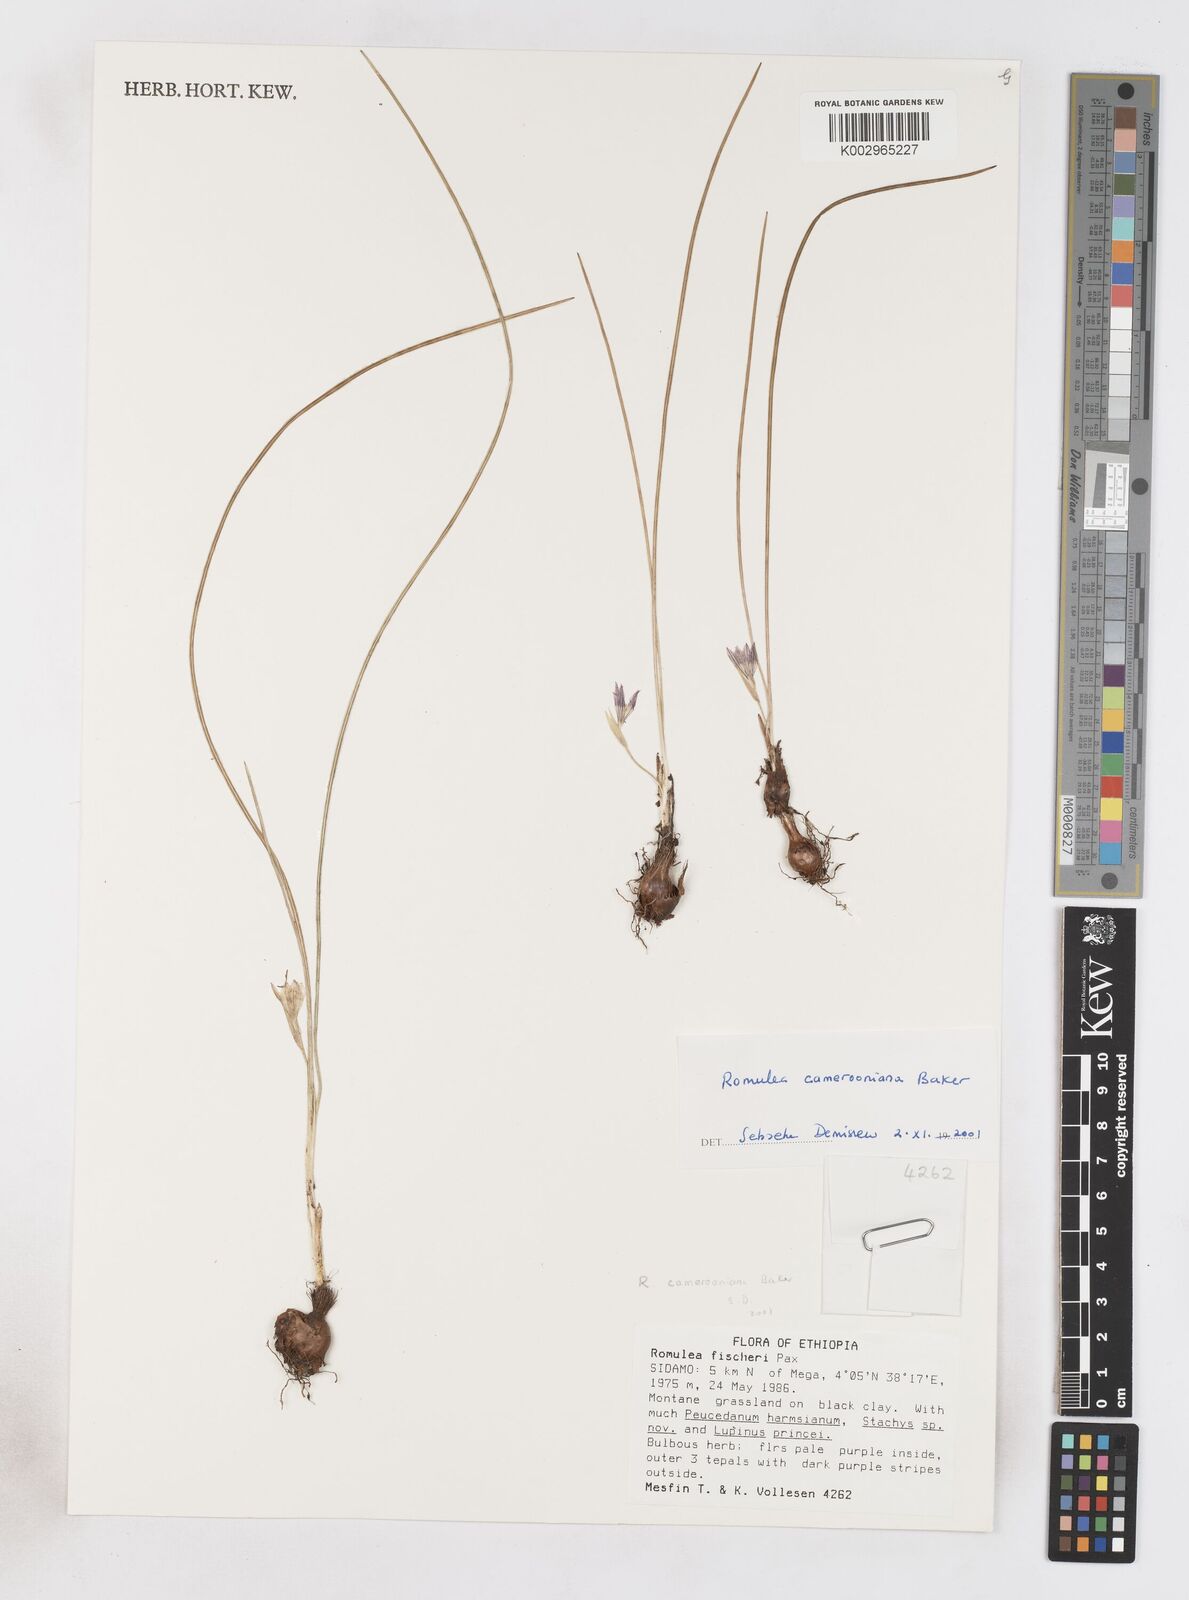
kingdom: Plantae
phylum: Tracheophyta
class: Liliopsida
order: Asparagales
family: Iridaceae
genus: Romulea
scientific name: Romulea camerooniana
